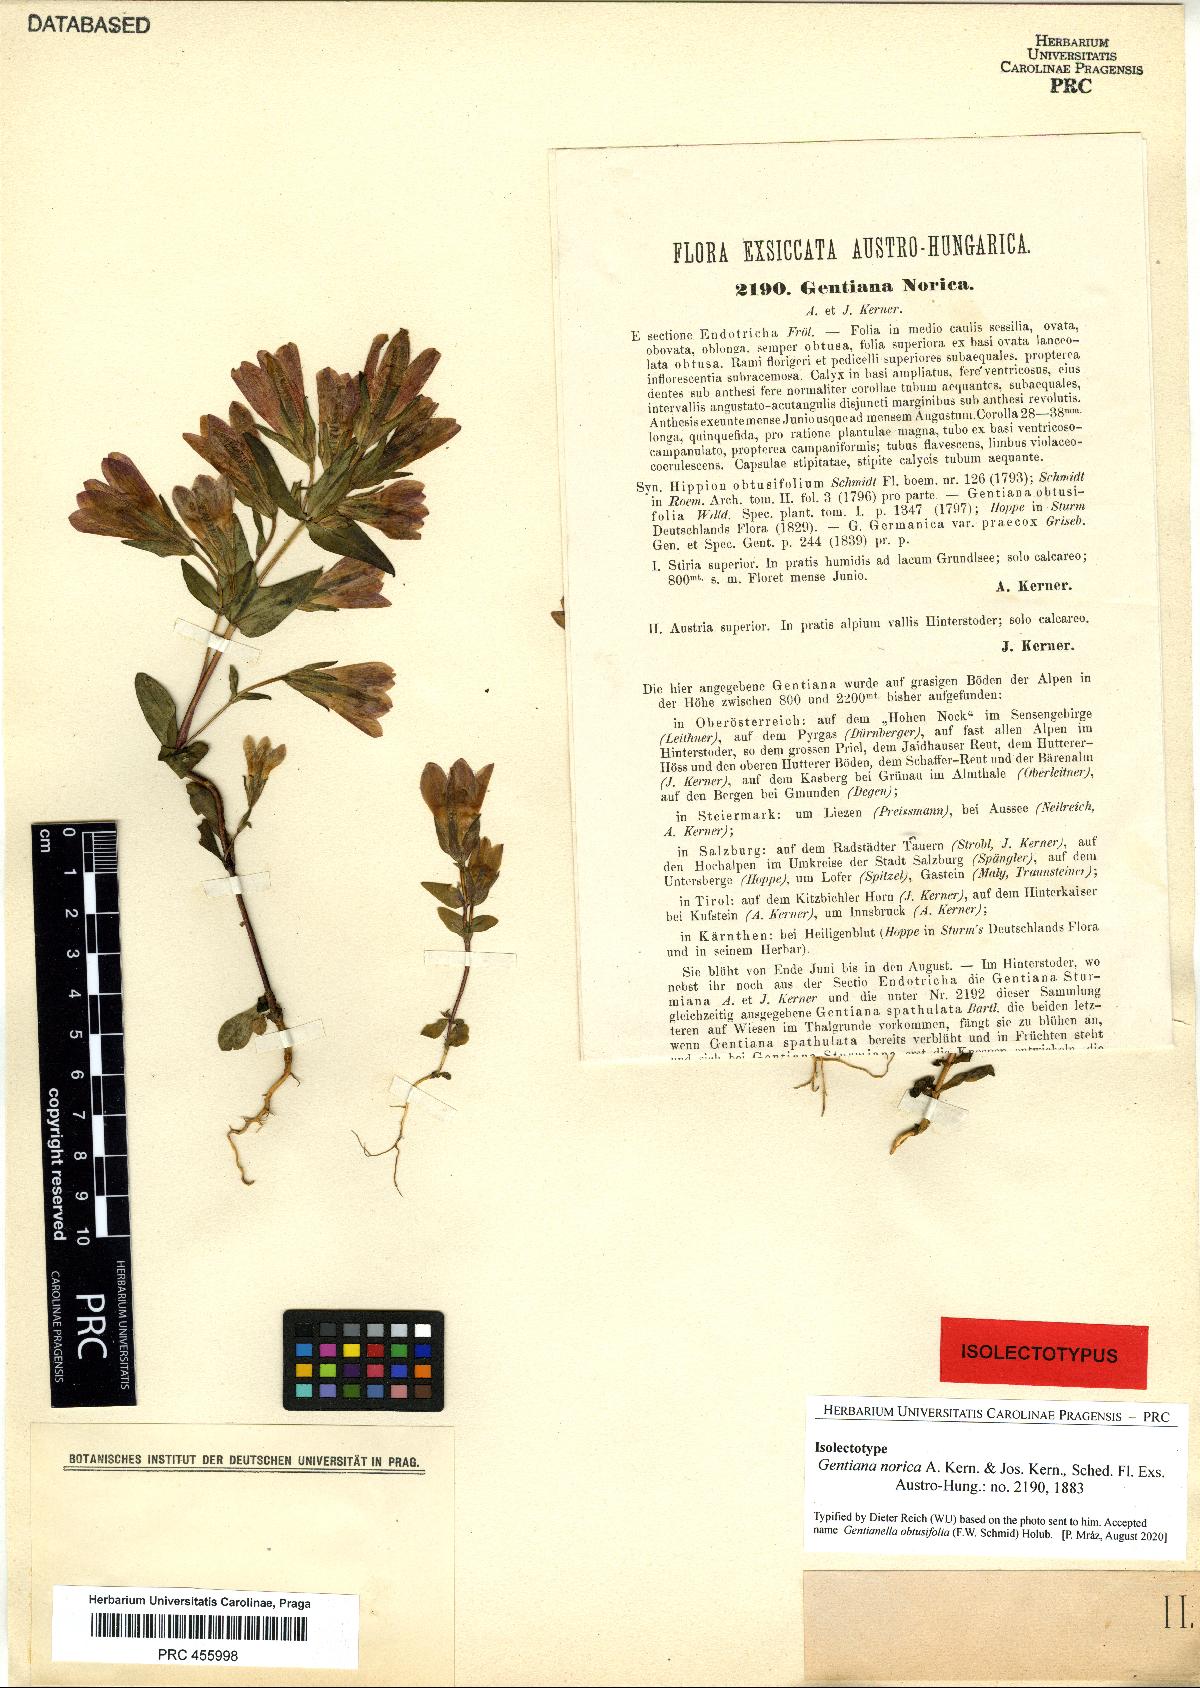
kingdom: Plantae
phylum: Tracheophyta
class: Magnoliopsida
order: Gentianales
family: Gentianaceae
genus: Gentianella
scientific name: Gentianella obtusifolia
